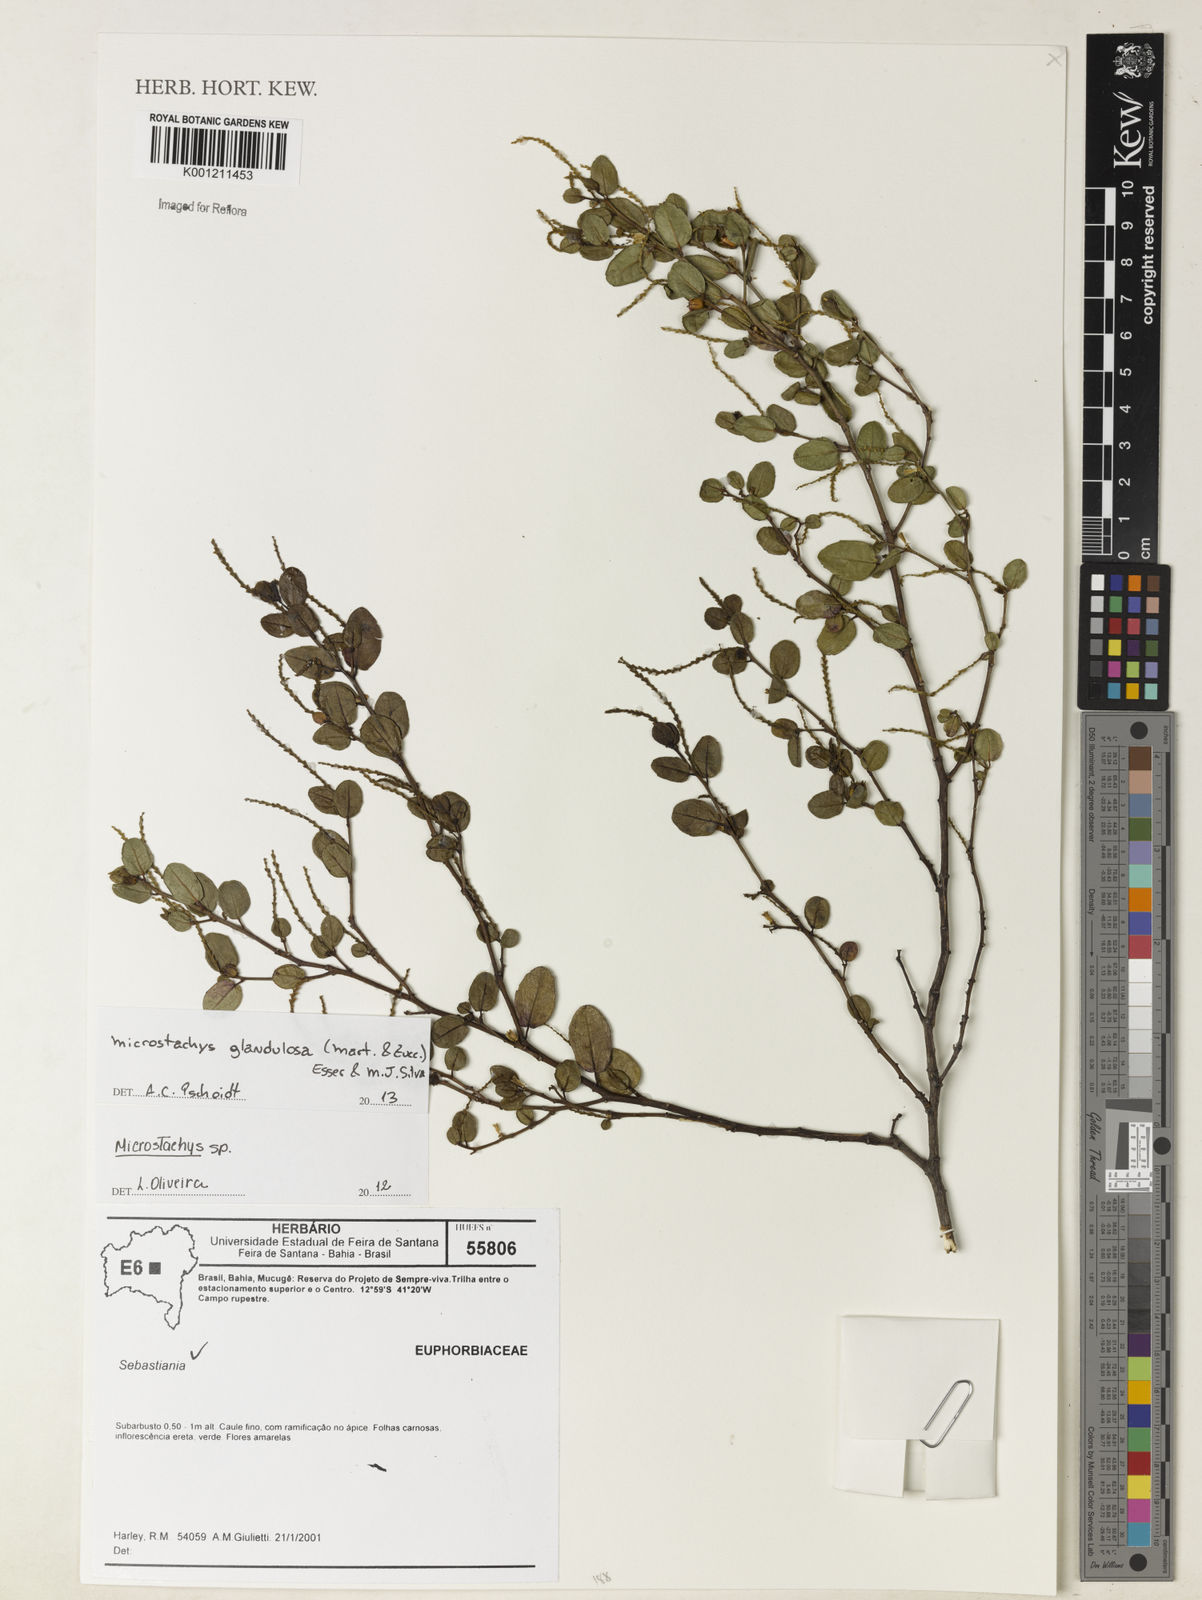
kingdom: Plantae
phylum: Tracheophyta
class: Magnoliopsida
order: Malpighiales
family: Euphorbiaceae
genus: Microstachys
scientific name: Microstachys glandulosa
